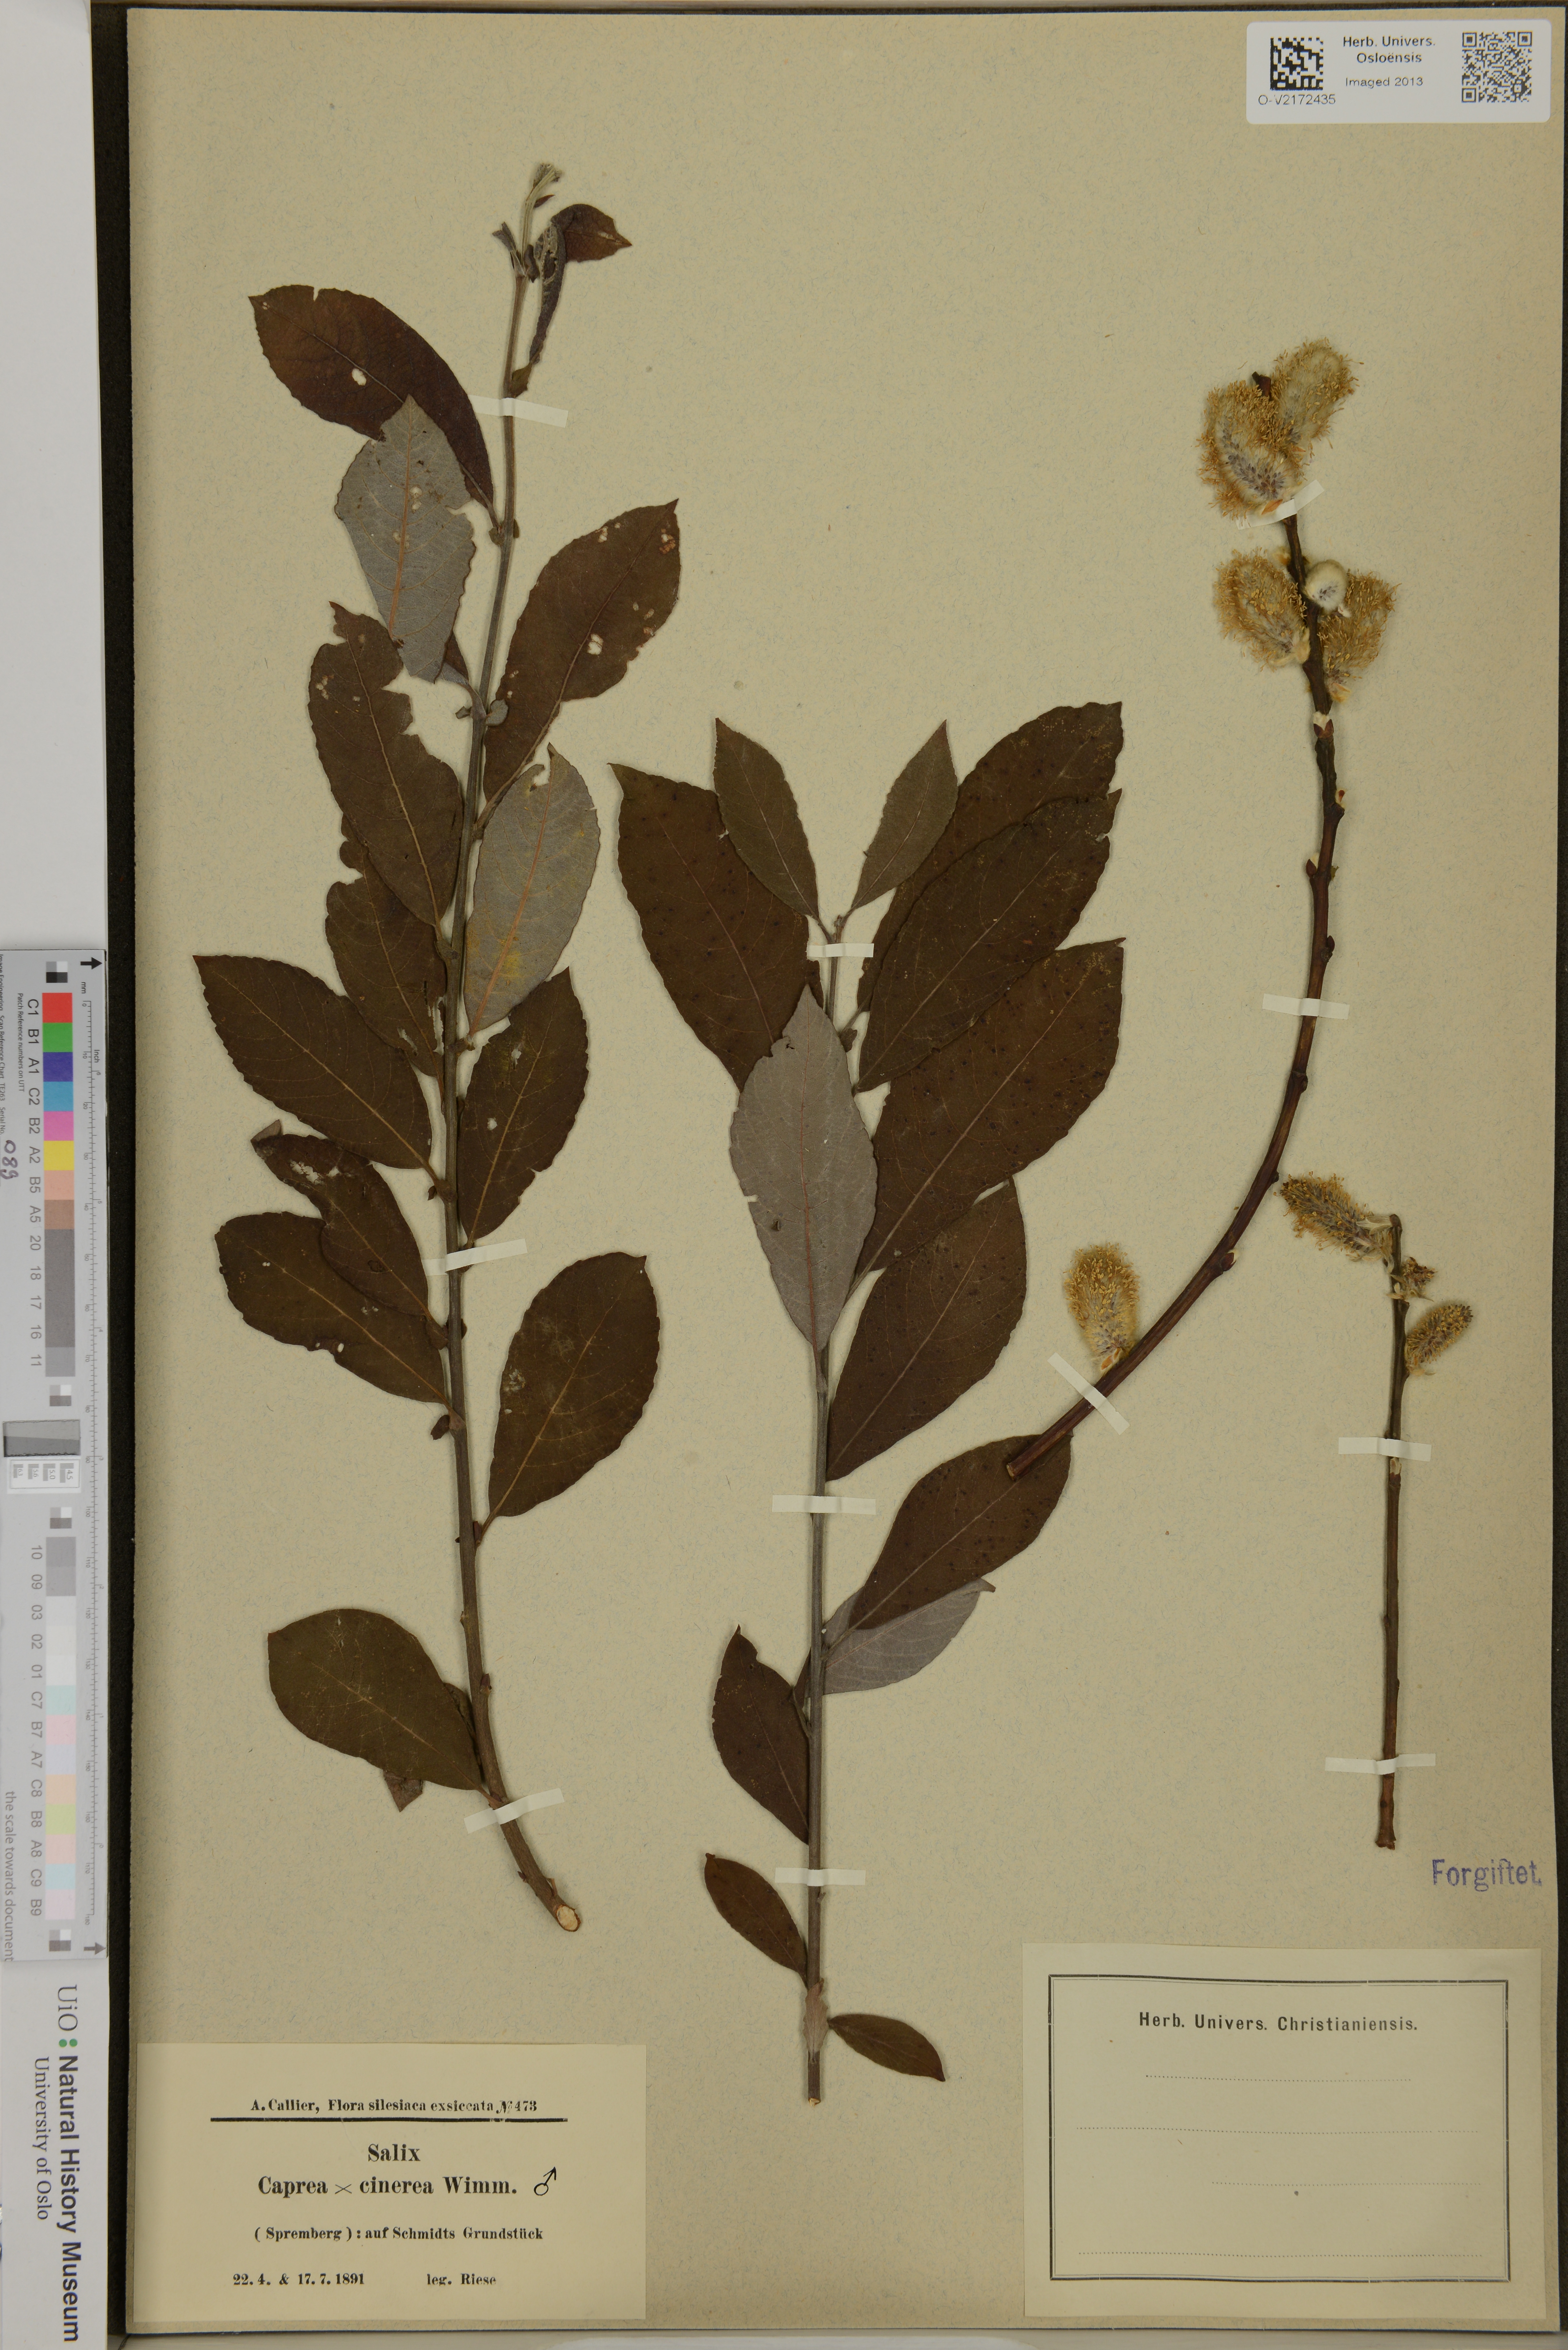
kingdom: Plantae
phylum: Tracheophyta
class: Magnoliopsida
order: Malpighiales
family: Salicaceae
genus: Salix
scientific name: Salix
